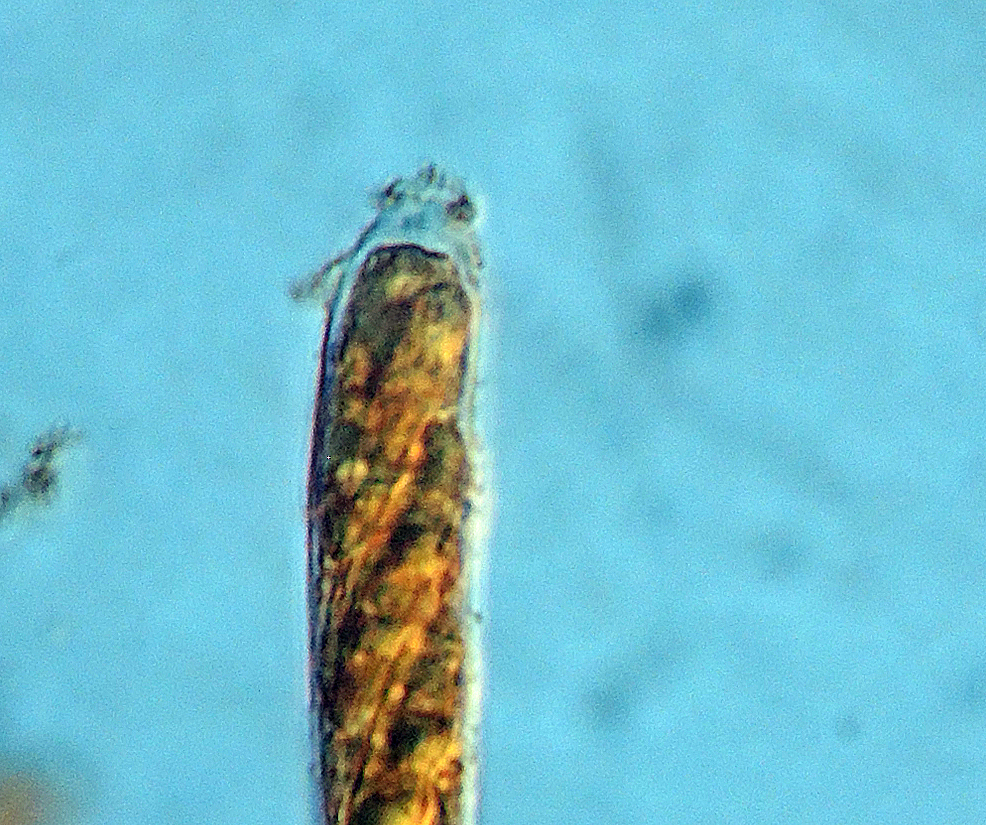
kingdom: Fungi
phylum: Ascomycota
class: Leotiomycetes
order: Helotiales
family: Helotiaceae
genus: Hymenoscyphus
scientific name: Hymenoscyphus
